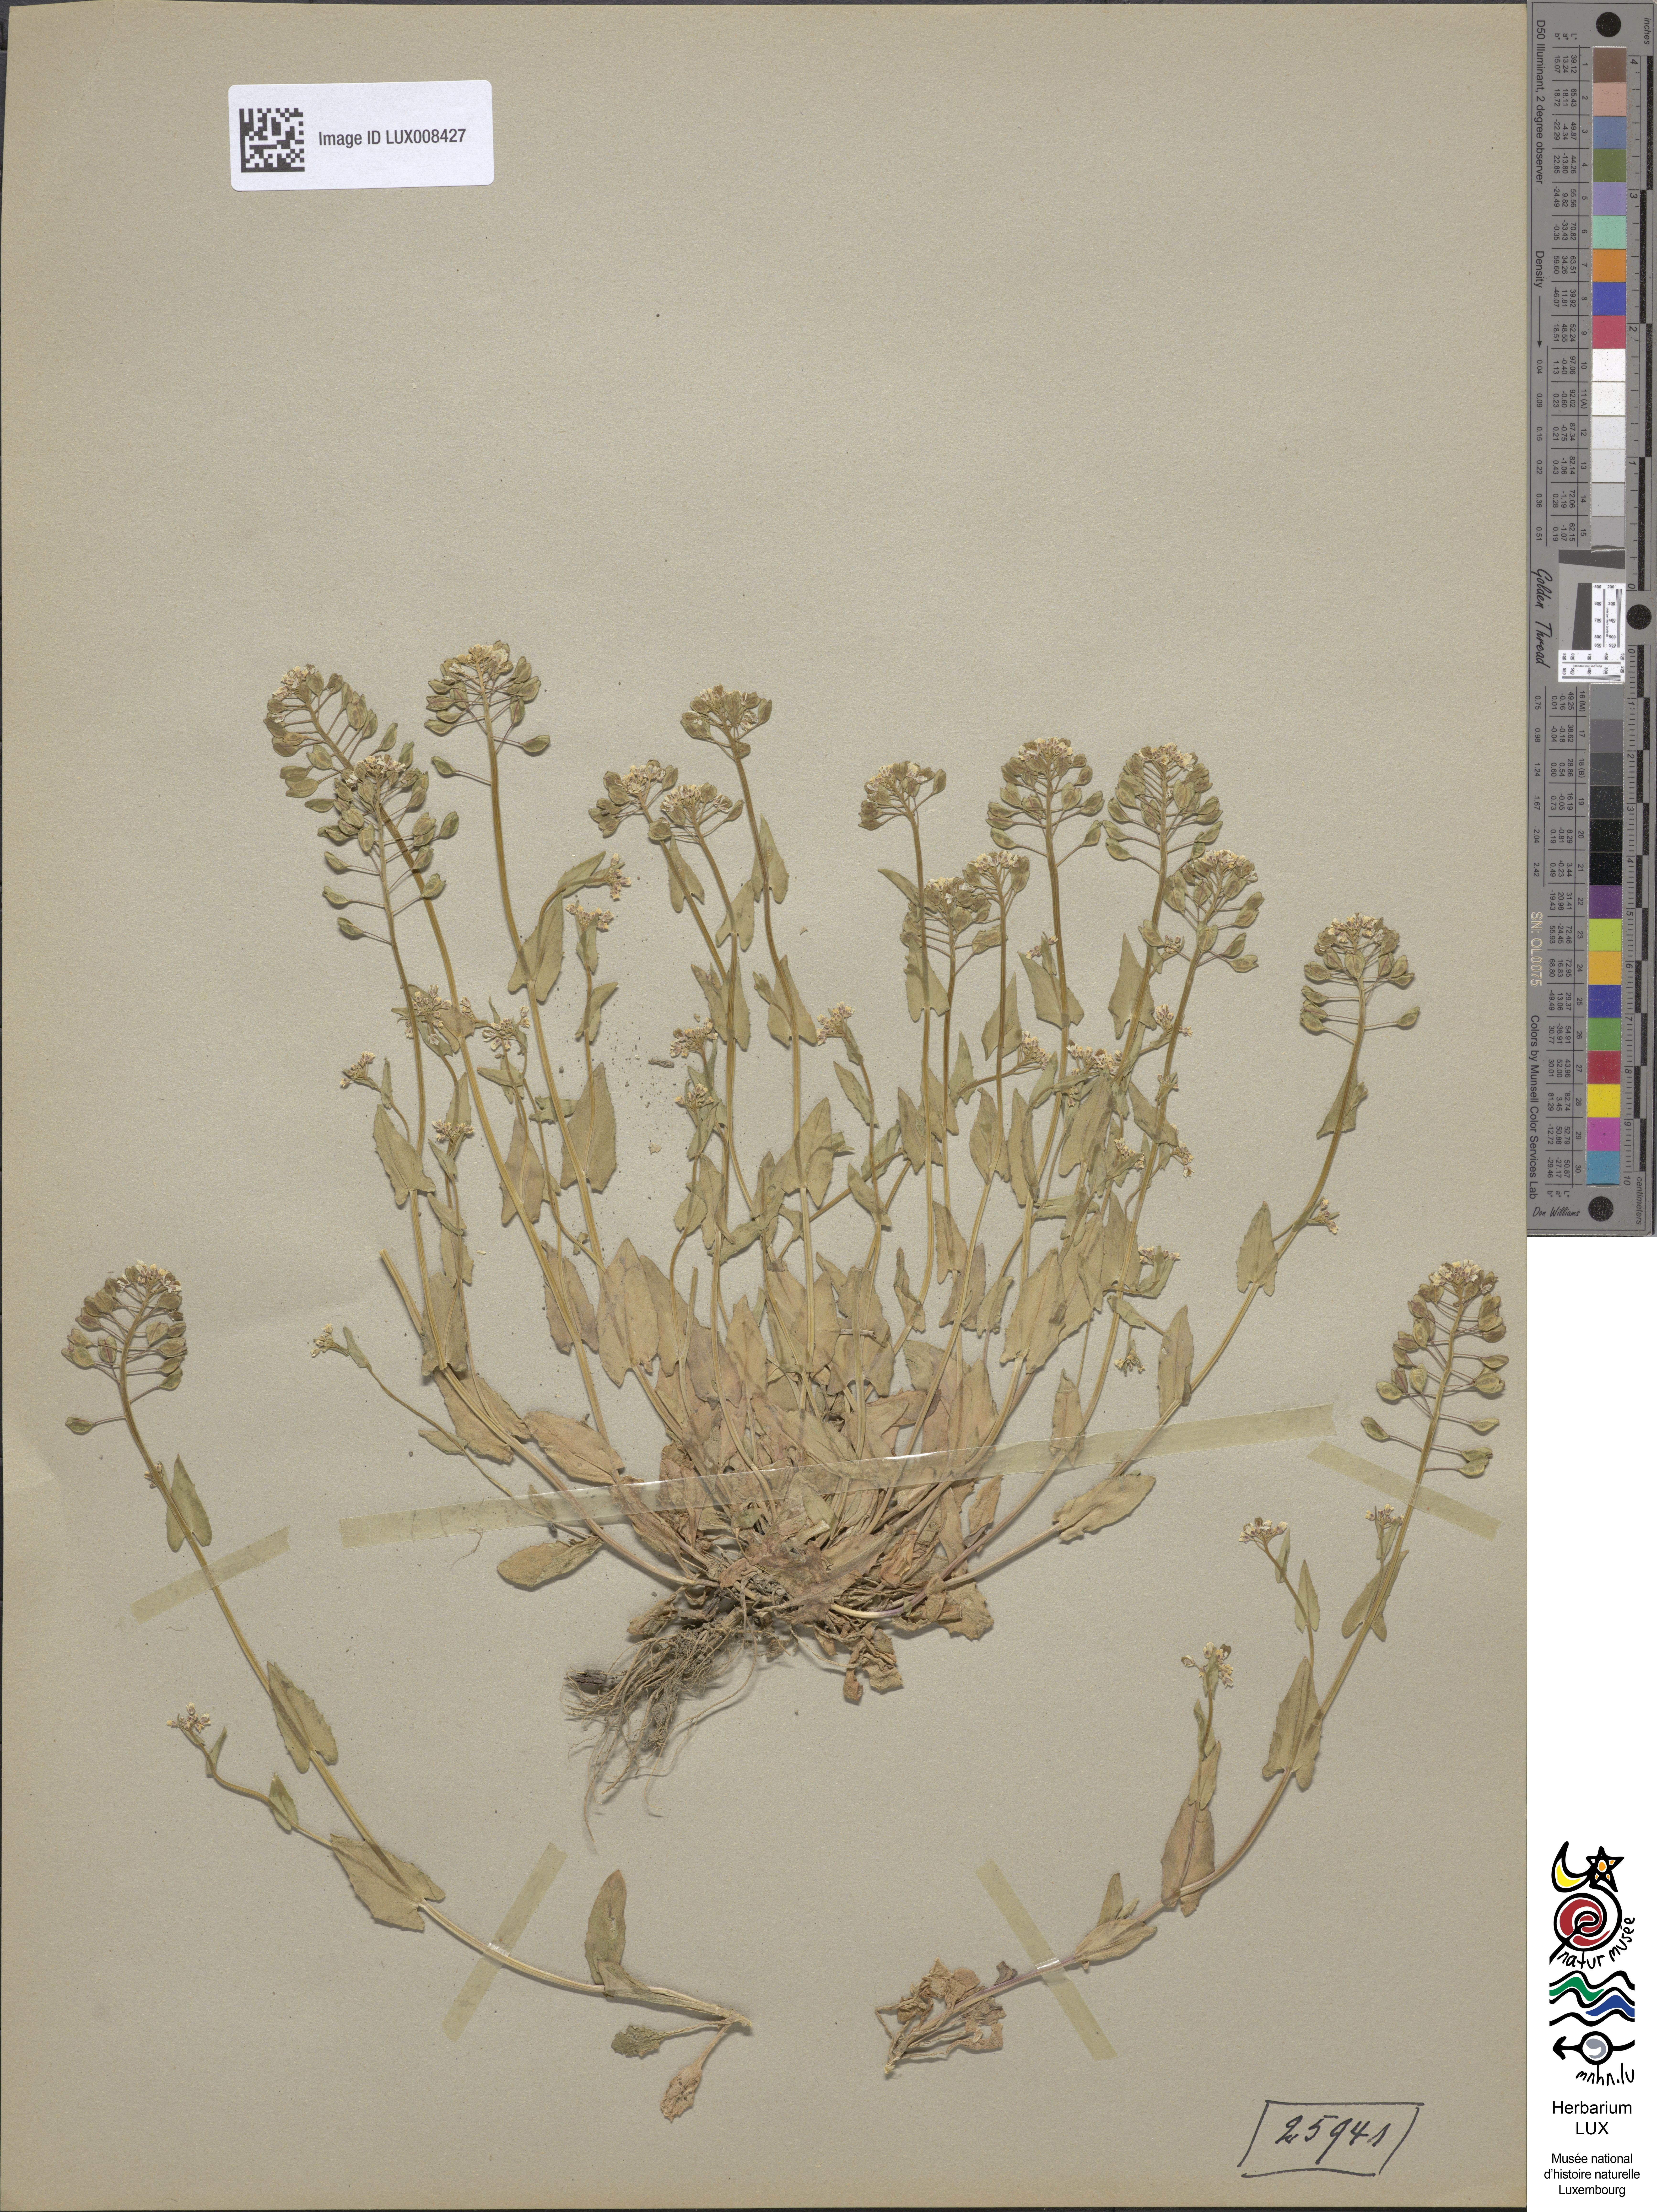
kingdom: Plantae
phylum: Tracheophyta
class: Magnoliopsida
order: Brassicales
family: Brassicaceae
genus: Noccaea
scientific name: Noccaea perfoliata
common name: Perfoliate pennycress
